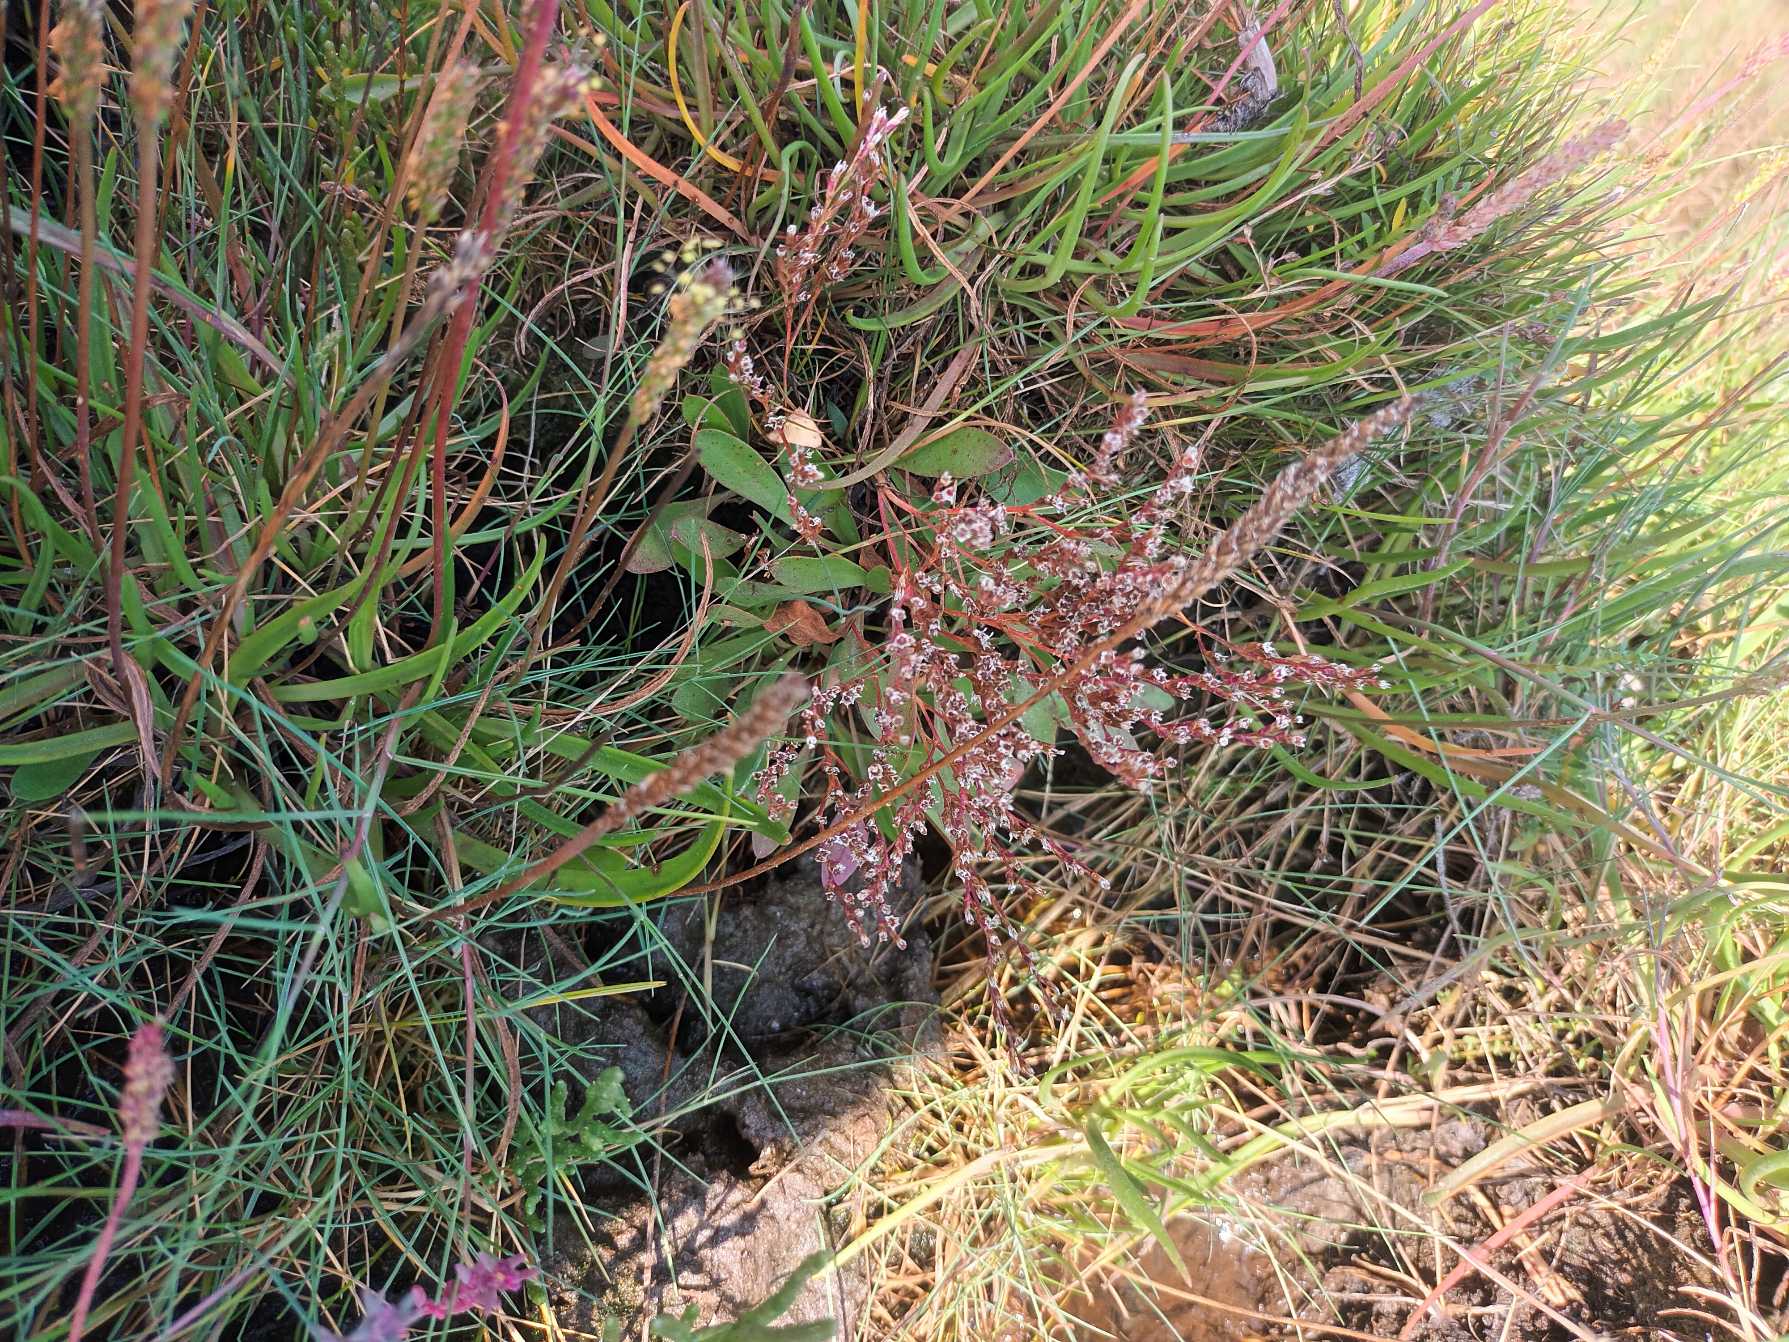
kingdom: Plantae
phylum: Tracheophyta
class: Magnoliopsida
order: Caryophyllales
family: Plumbaginaceae
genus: Limonium
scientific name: Limonium humile
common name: Lav hindebæger
